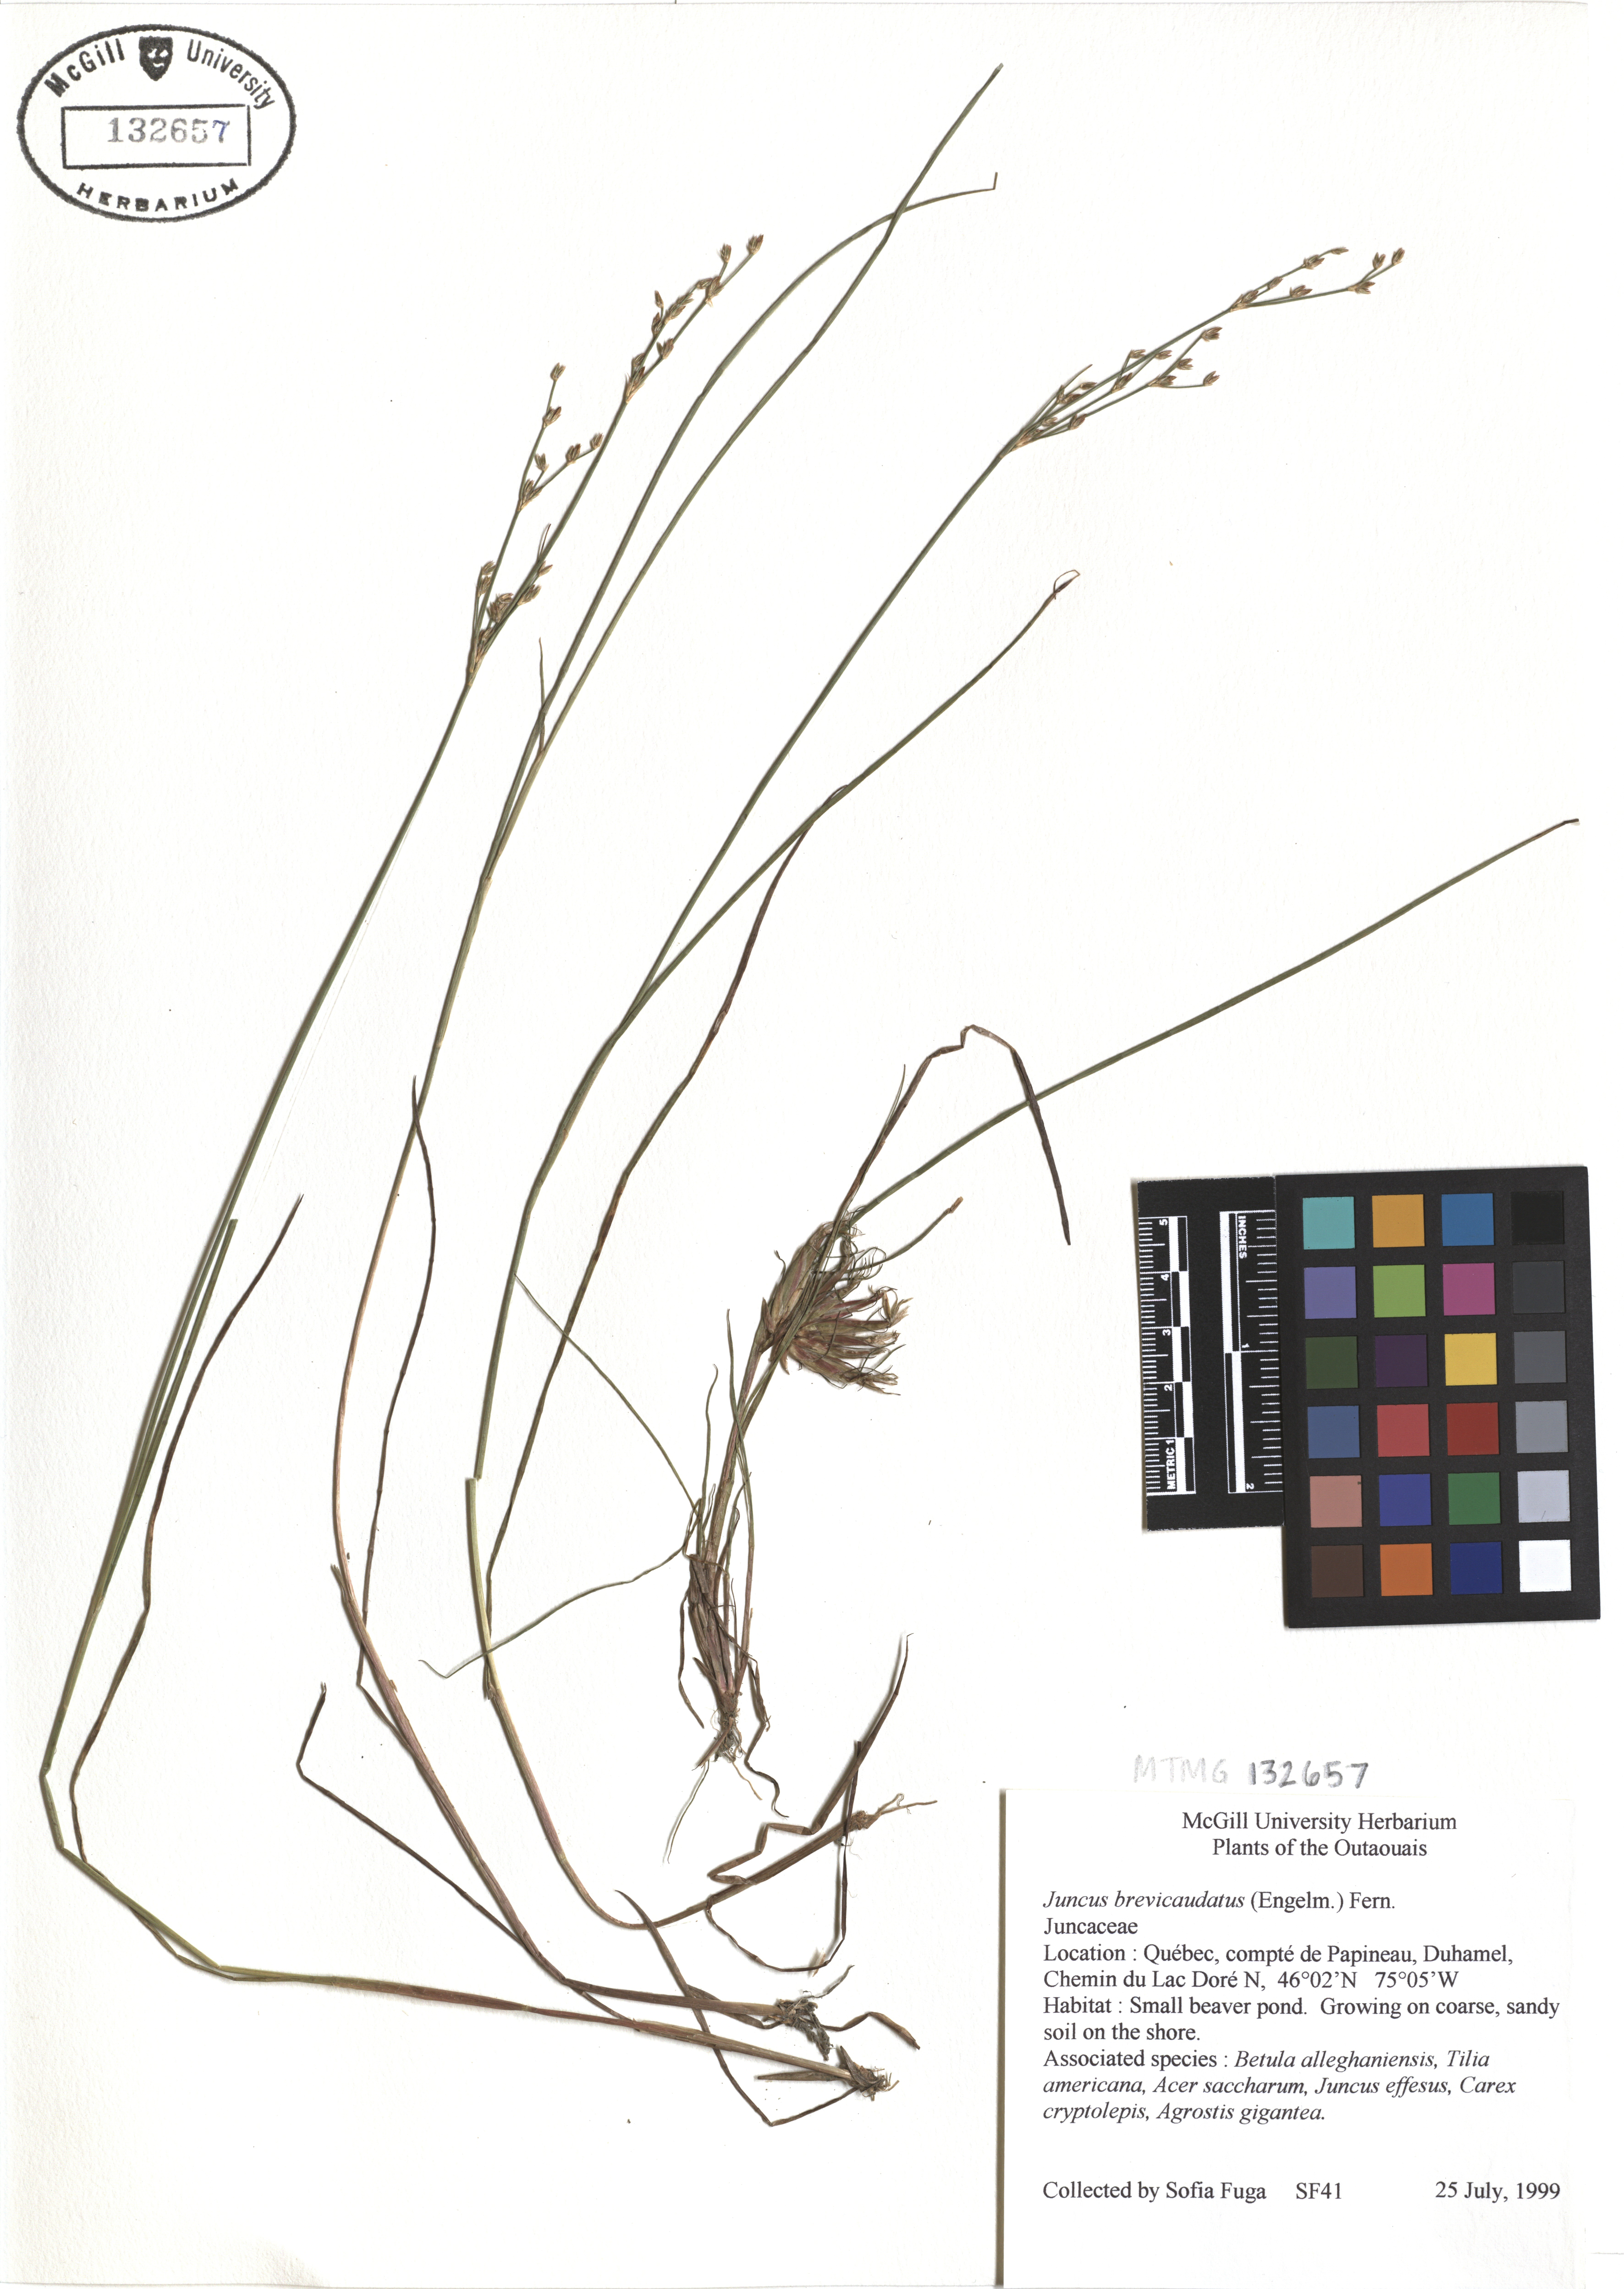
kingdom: Plantae
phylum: Tracheophyta
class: Liliopsida
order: Poales
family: Juncaceae
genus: Juncus
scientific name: Juncus brevicaudatus
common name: Narrow-panicle rush
